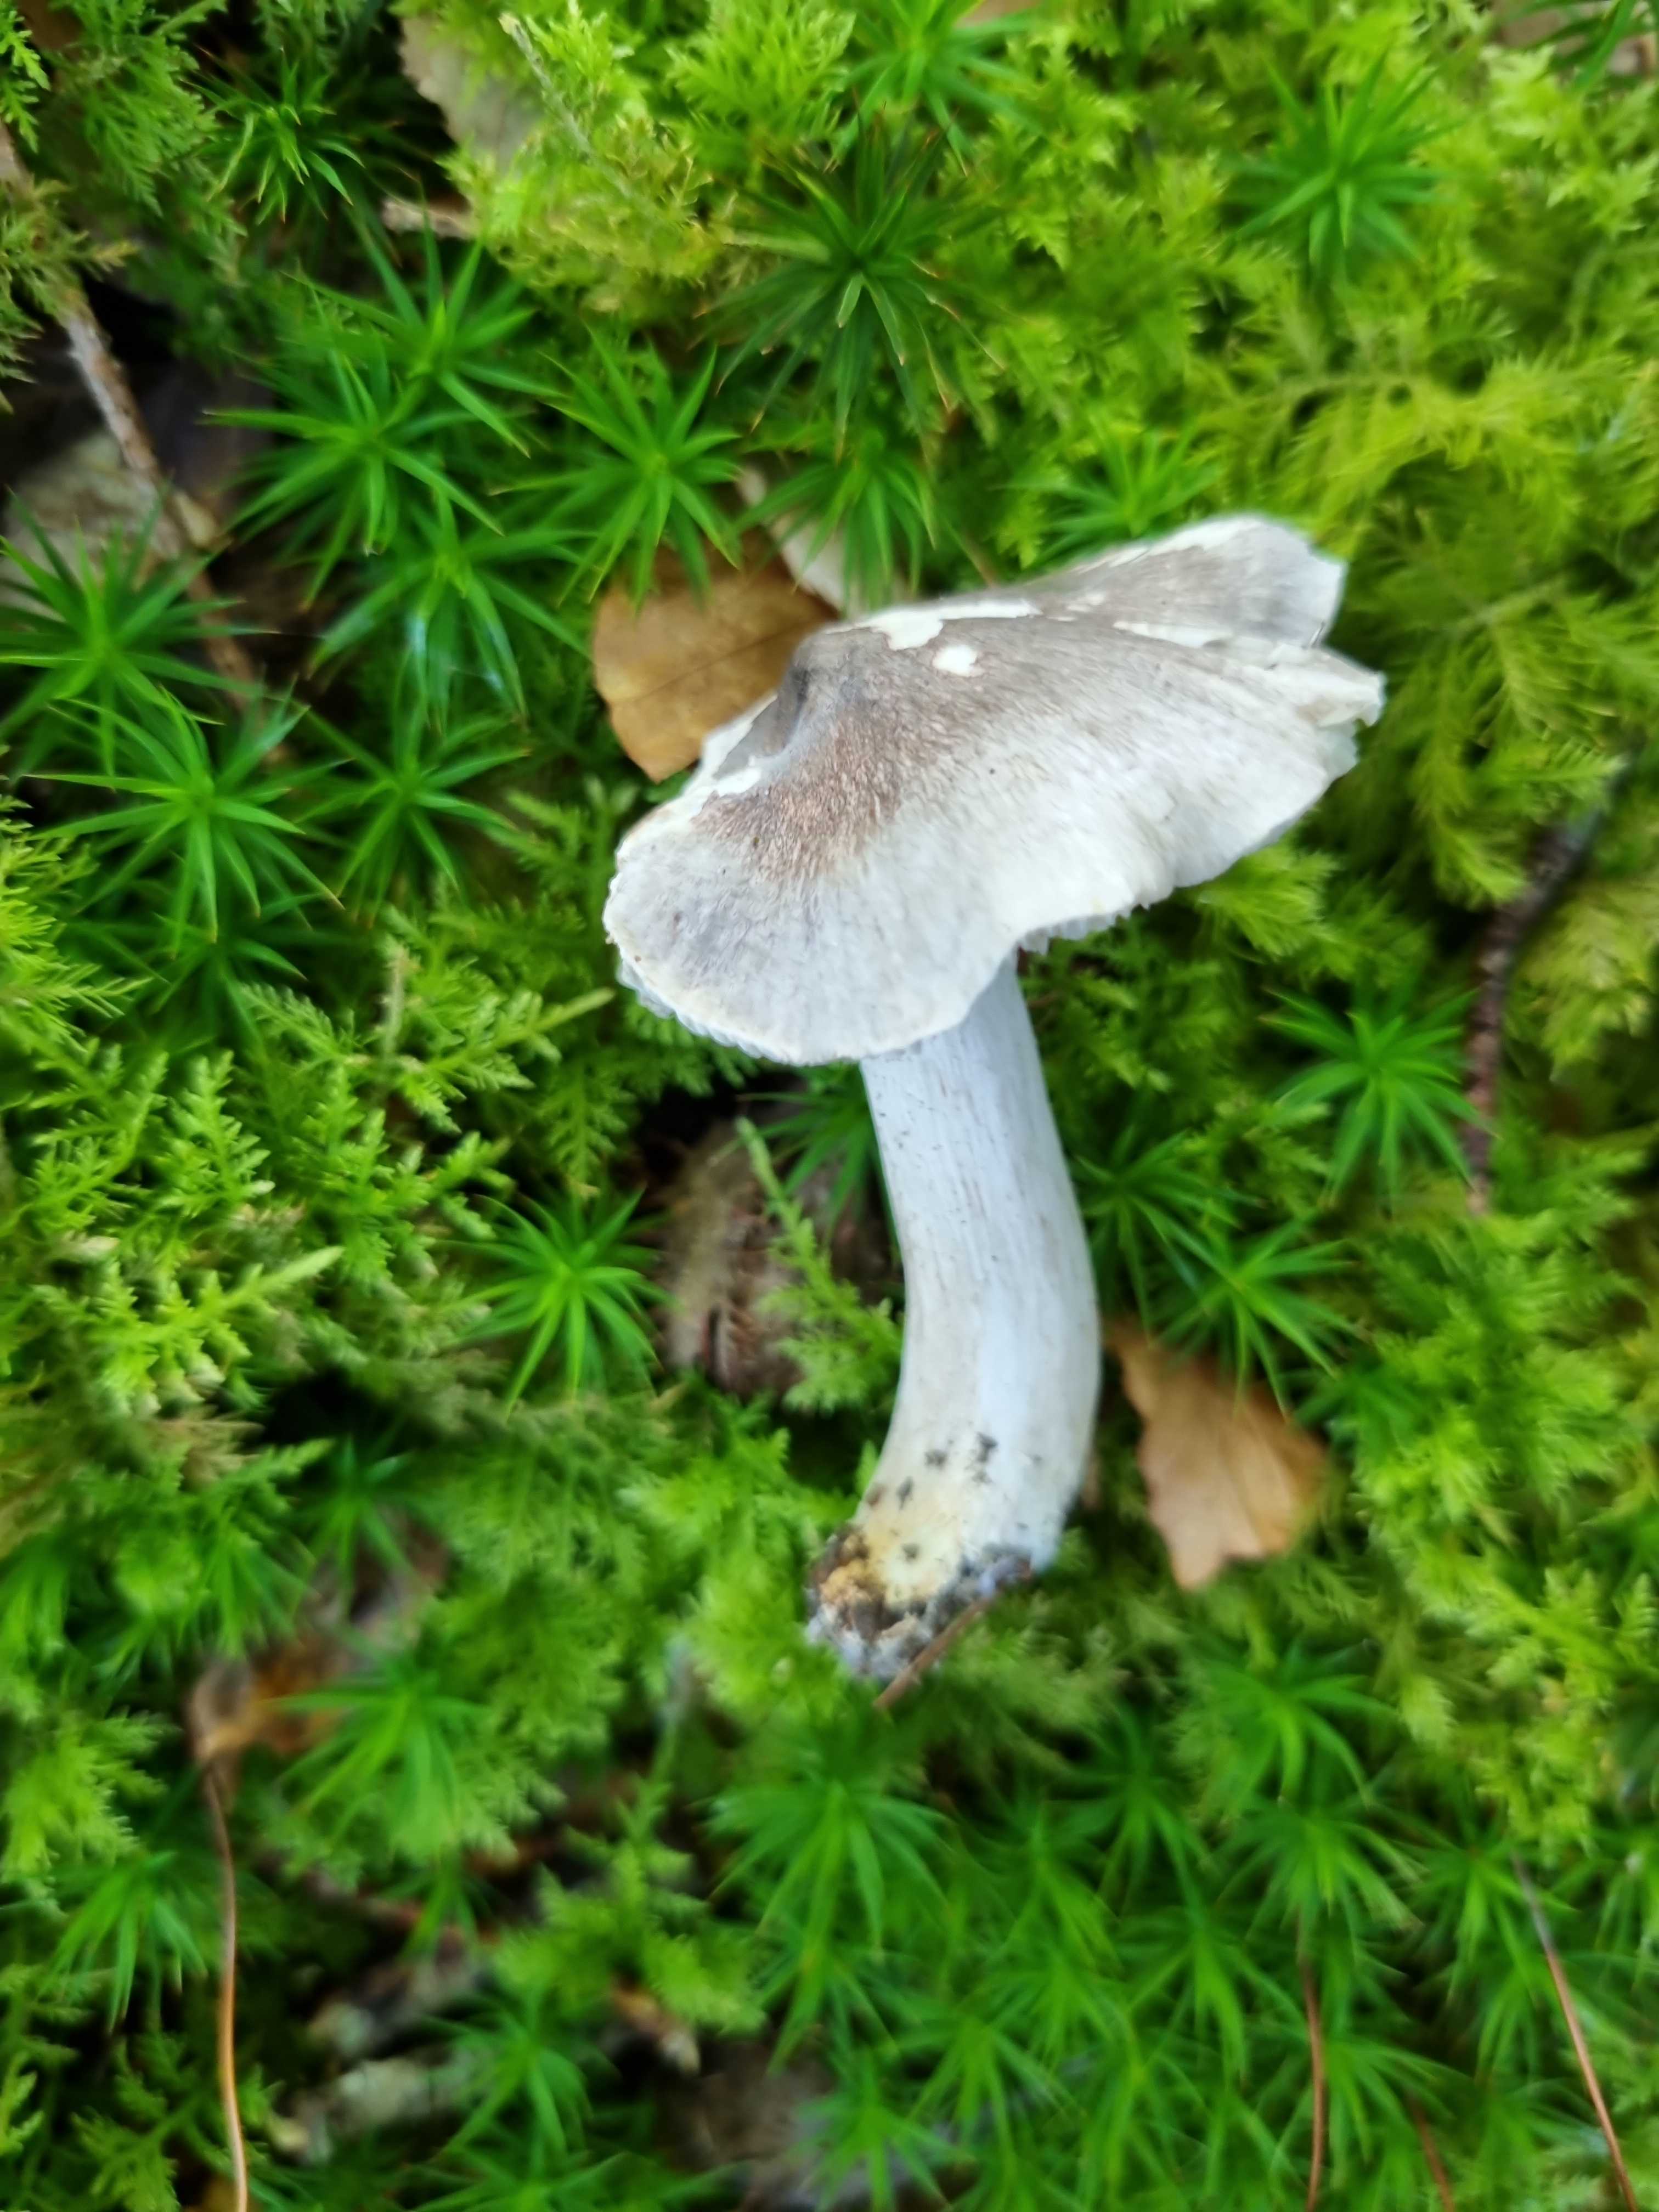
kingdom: Fungi
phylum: Basidiomycota
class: Agaricomycetes
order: Agaricales
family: Tricholomataceae
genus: Tricholoma
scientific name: Tricholoma sciodes
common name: stribet ridderhat
